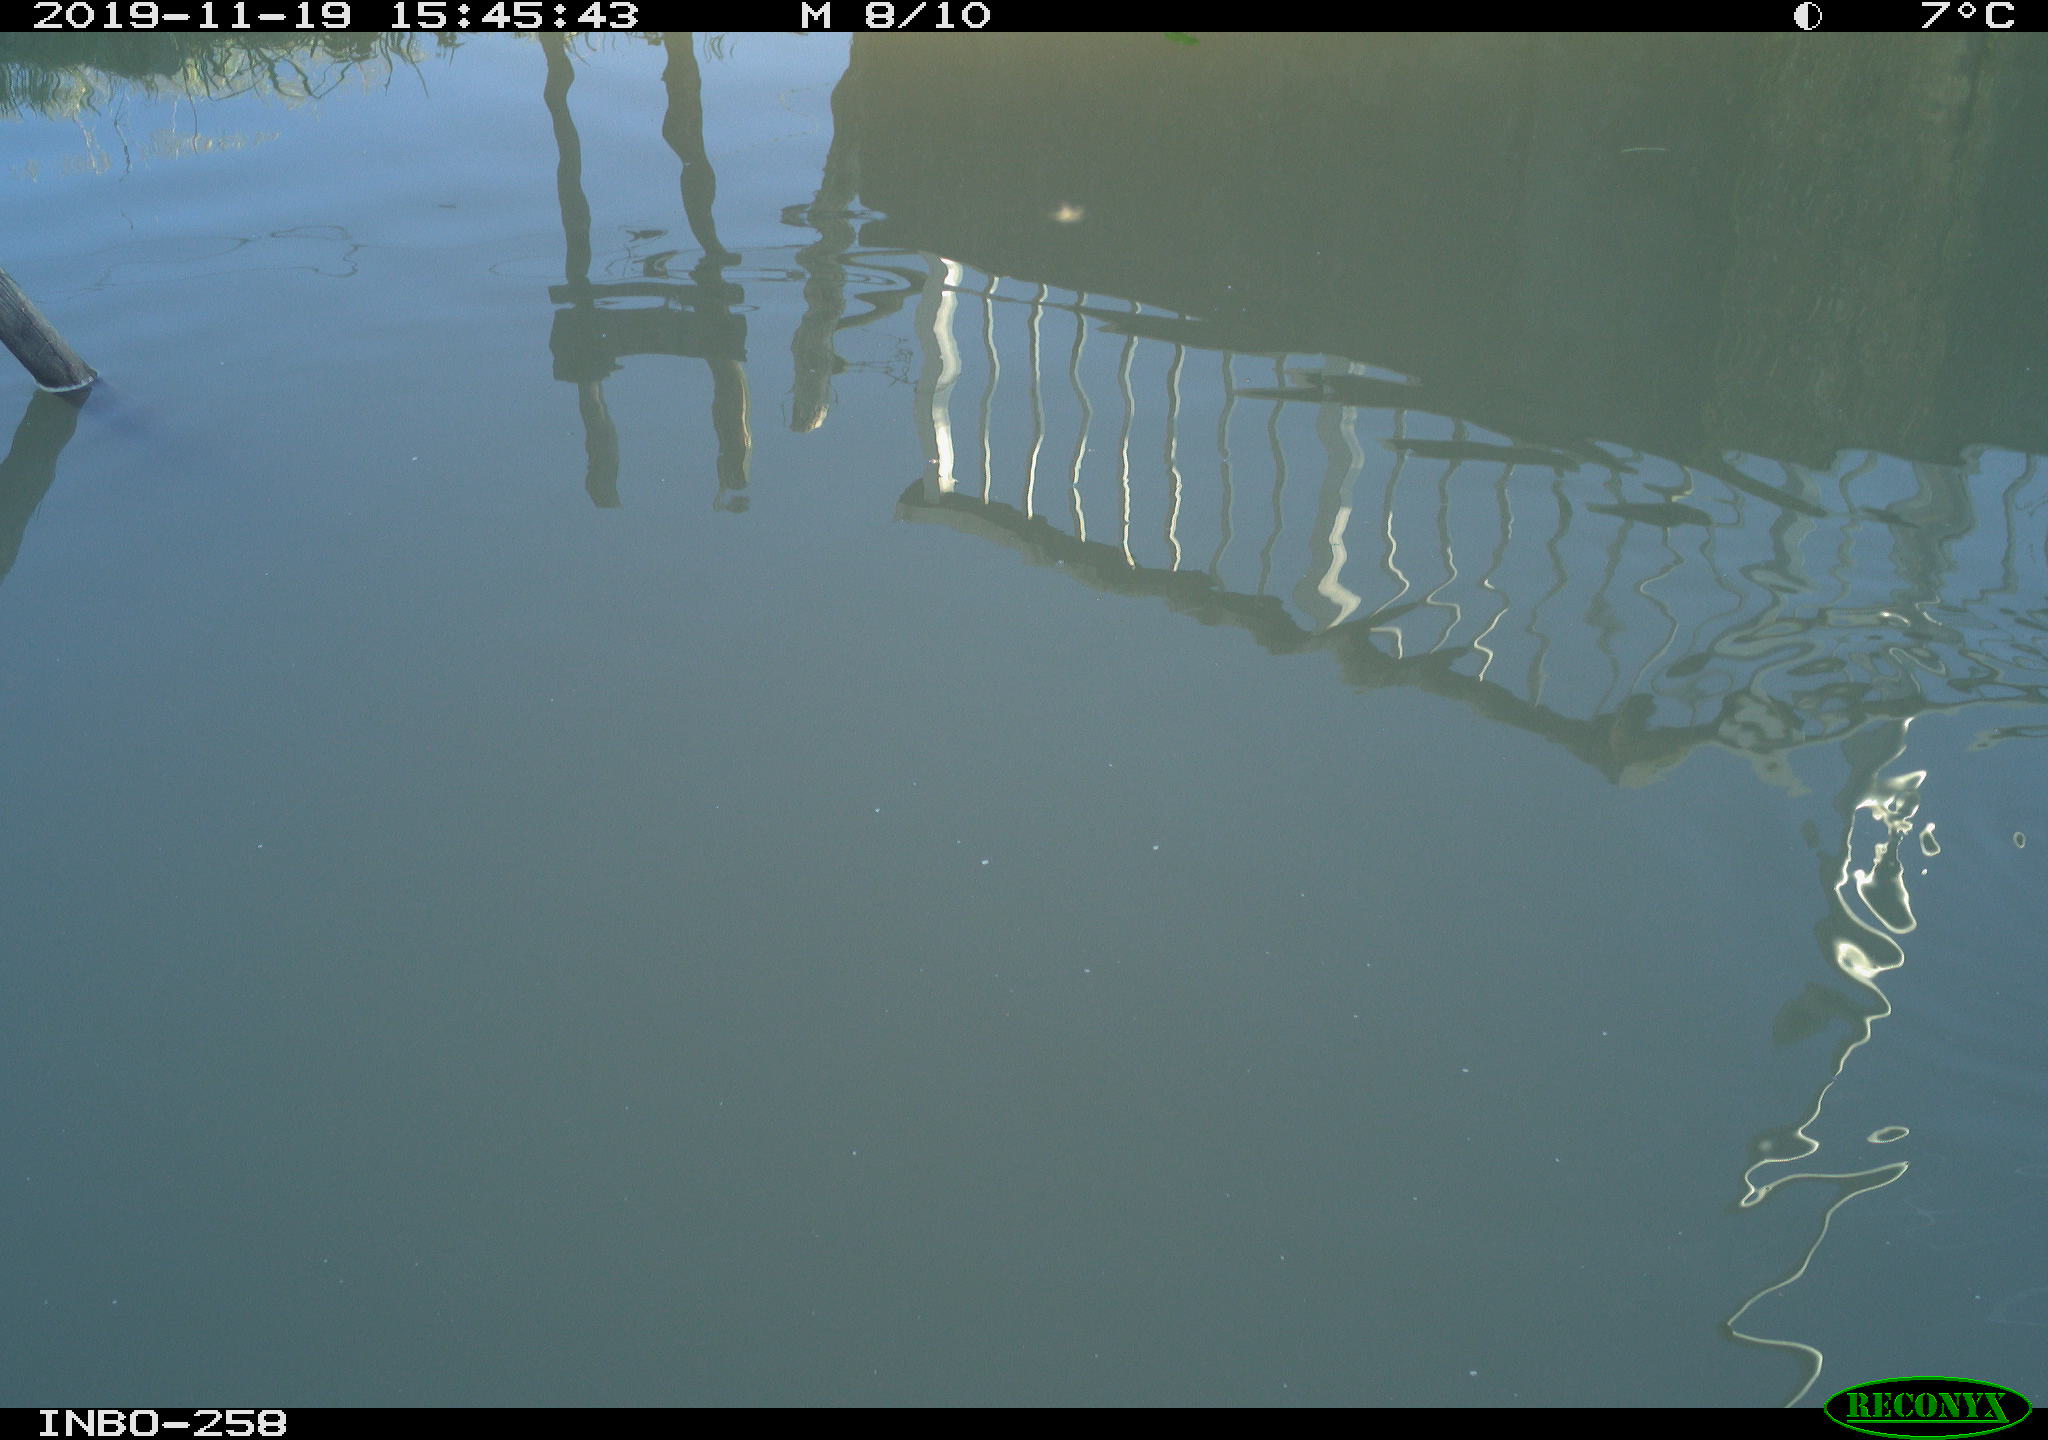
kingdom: Animalia
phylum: Chordata
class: Aves
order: Gruiformes
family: Rallidae
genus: Gallinula
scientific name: Gallinula chloropus
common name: Common moorhen
